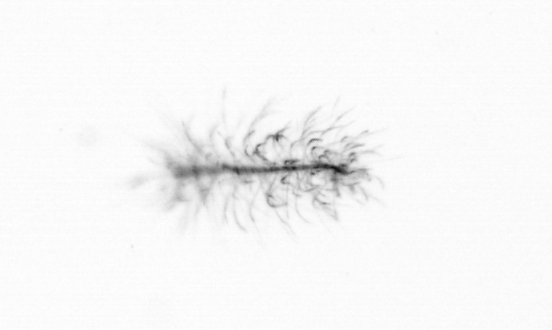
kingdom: Chromista
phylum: Ochrophyta
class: Bacillariophyceae
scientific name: Bacillariophyceae
